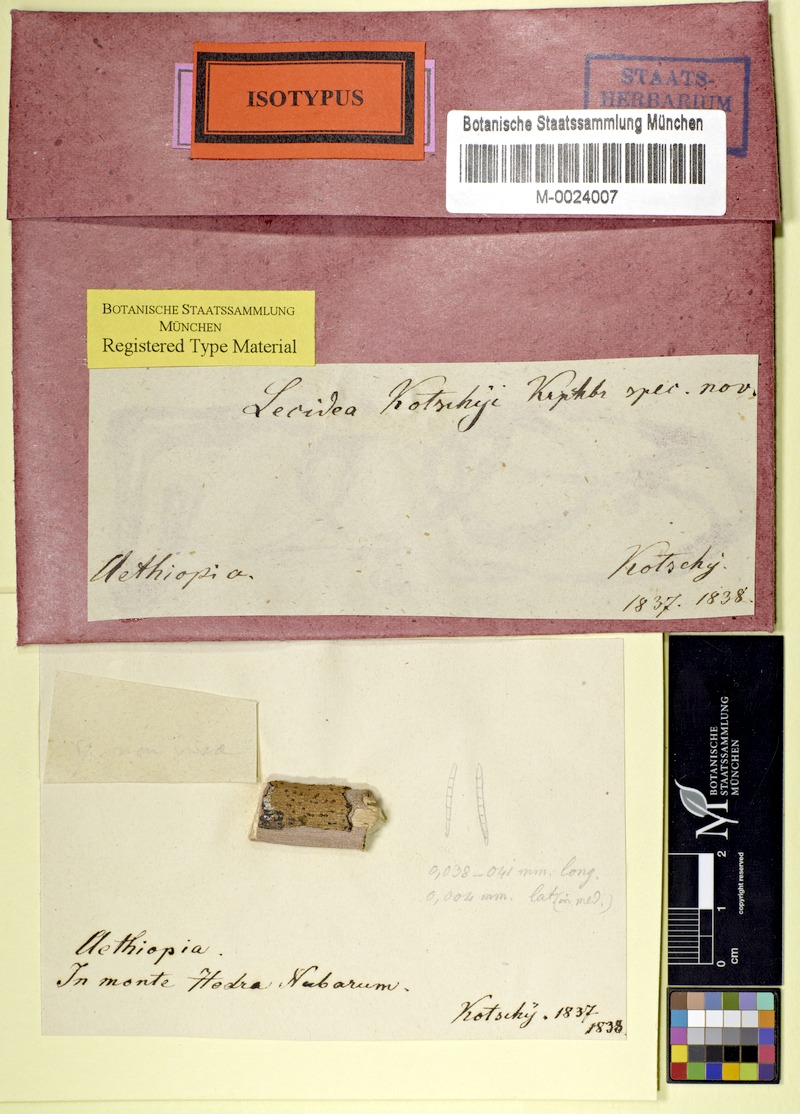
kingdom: Fungi
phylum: Ascomycota
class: Lecanoromycetes
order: Lecanorales
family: Ramalinaceae
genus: Bacidia
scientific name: Bacidia
